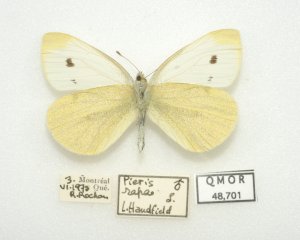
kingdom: Animalia
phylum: Arthropoda
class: Insecta
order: Lepidoptera
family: Pieridae
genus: Pieris
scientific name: Pieris rapae
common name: Cabbage White
